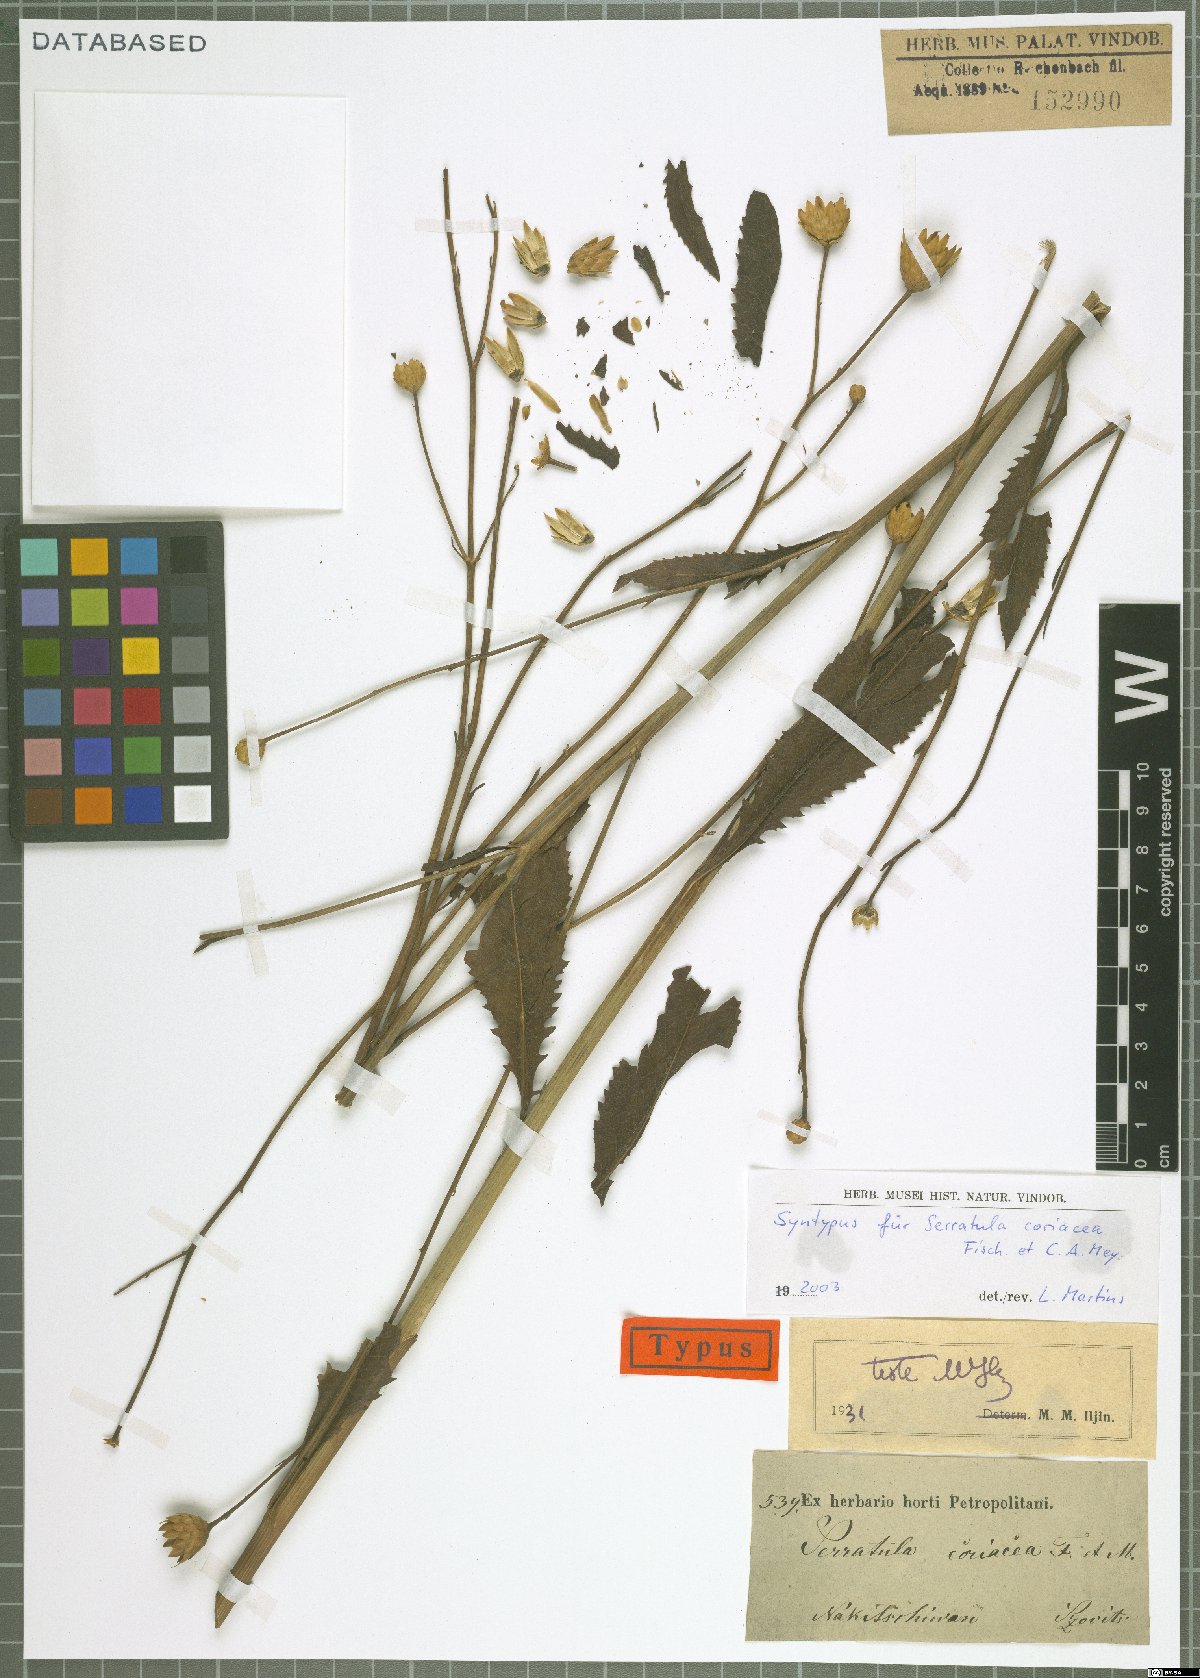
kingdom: Plantae
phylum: Tracheophyta
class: Magnoliopsida
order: Asterales
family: Asteraceae
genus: Serratula
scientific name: Serratula coriacea
